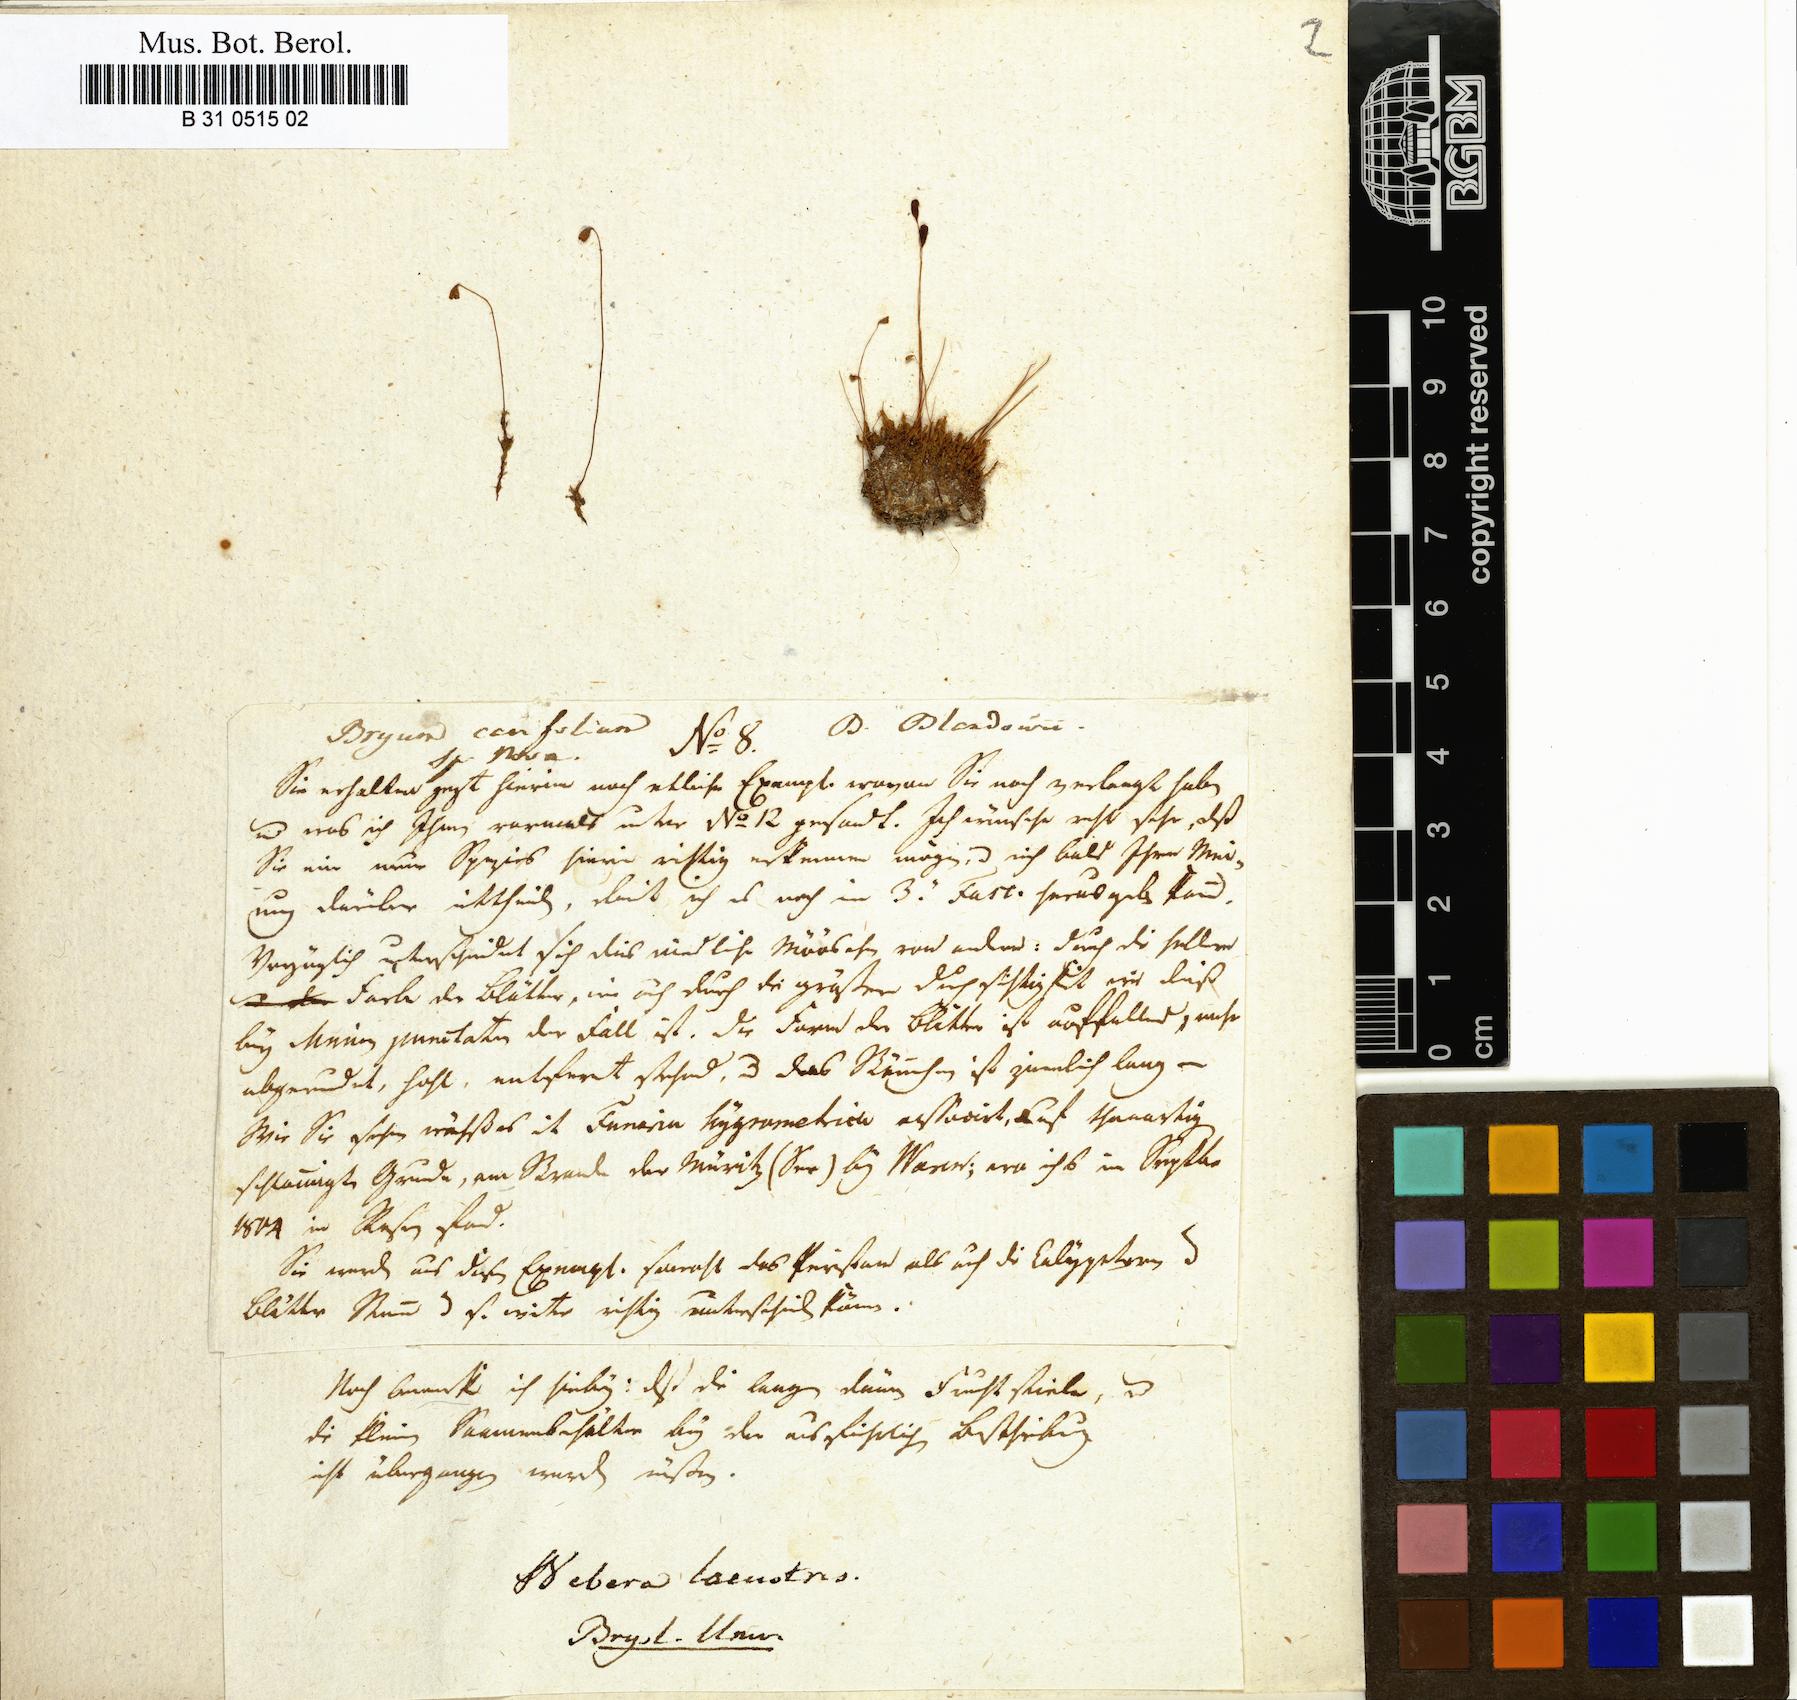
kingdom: Plantae
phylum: Bryophyta
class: Bryopsida
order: Bryales
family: Bryaceae
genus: Ptychostomum
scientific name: Ptychostomum knowltonii
